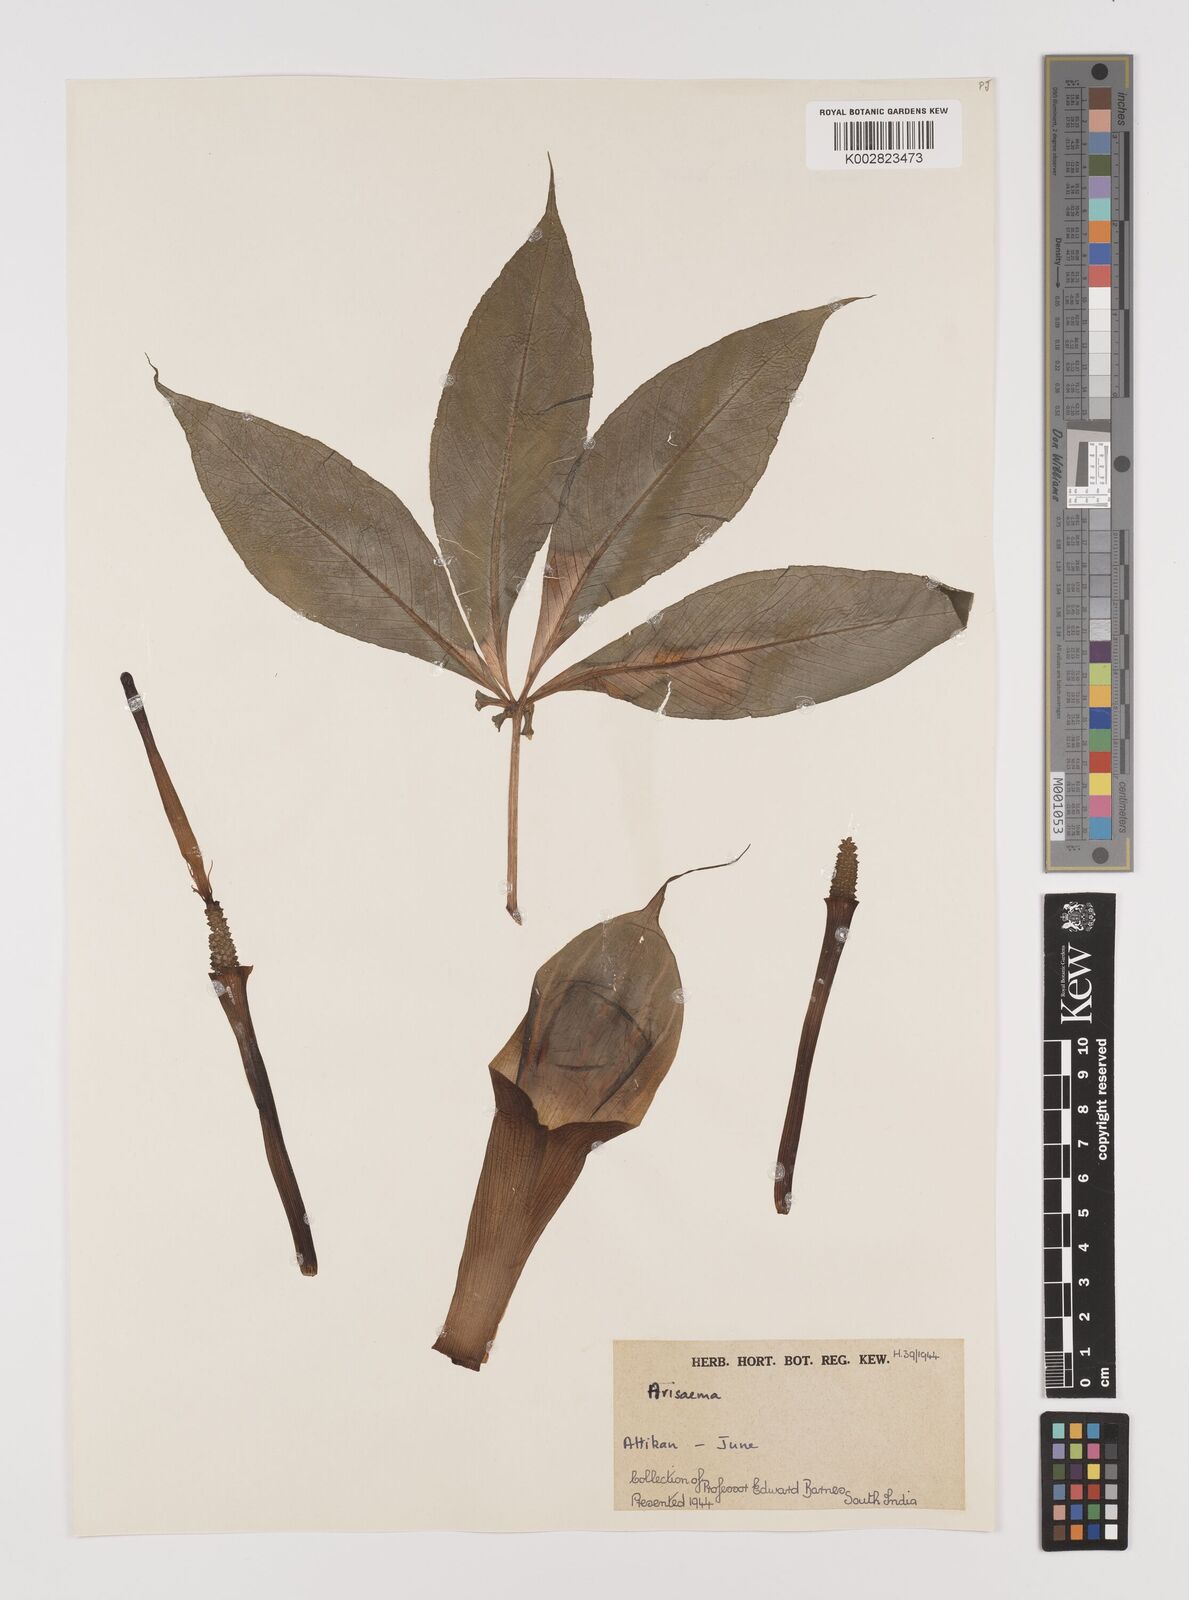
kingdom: Plantae
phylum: Tracheophyta
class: Liliopsida
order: Alismatales
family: Araceae
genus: Arisaema
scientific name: Arisaema
